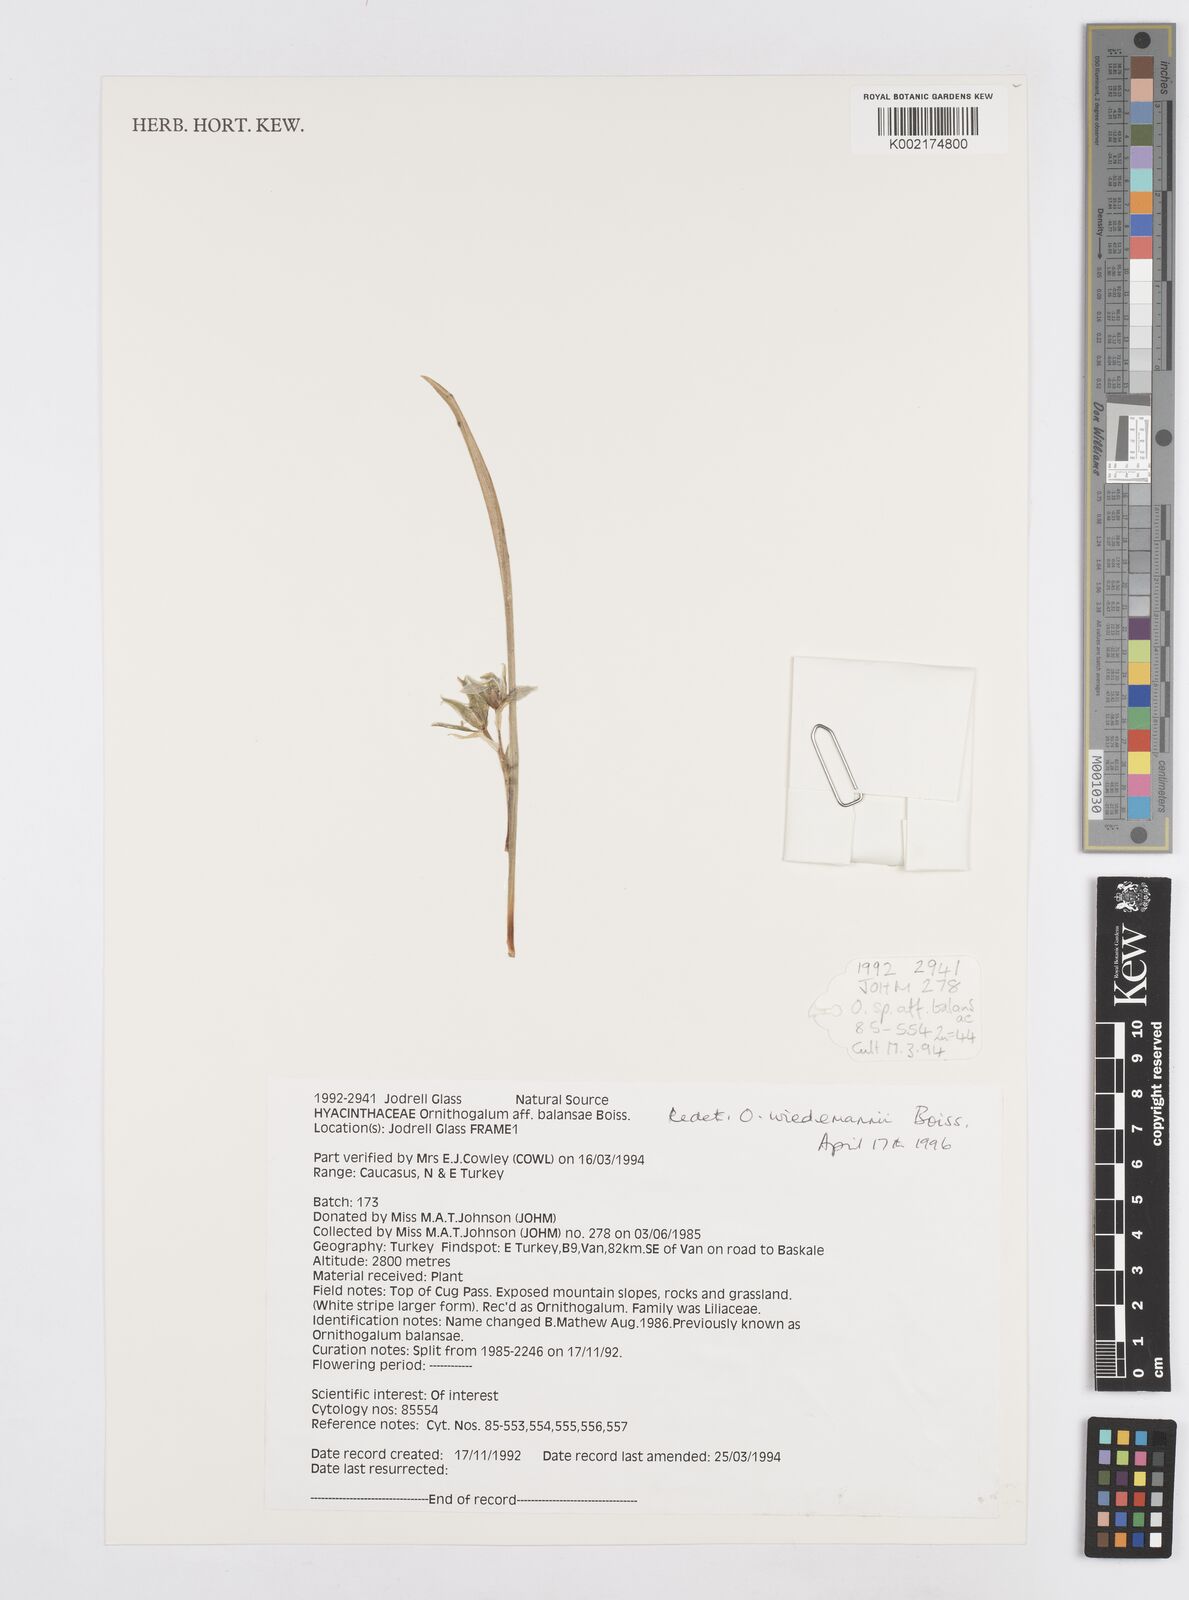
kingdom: Plantae
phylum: Tracheophyta
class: Liliopsida
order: Asparagales
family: Asparagaceae
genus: Ornithogalum
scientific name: Ornithogalum wiedemannii
